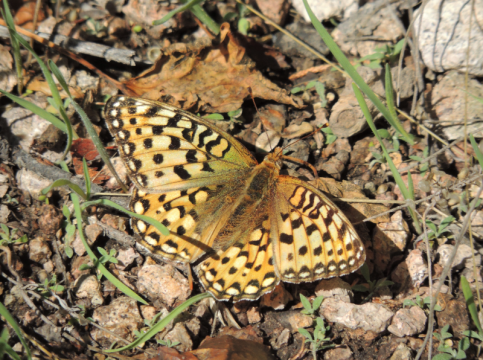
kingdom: Animalia
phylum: Arthropoda
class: Insecta
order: Lepidoptera
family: Nymphalidae
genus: Speyeria
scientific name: Speyeria coronis
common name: Coronis Fritillary
